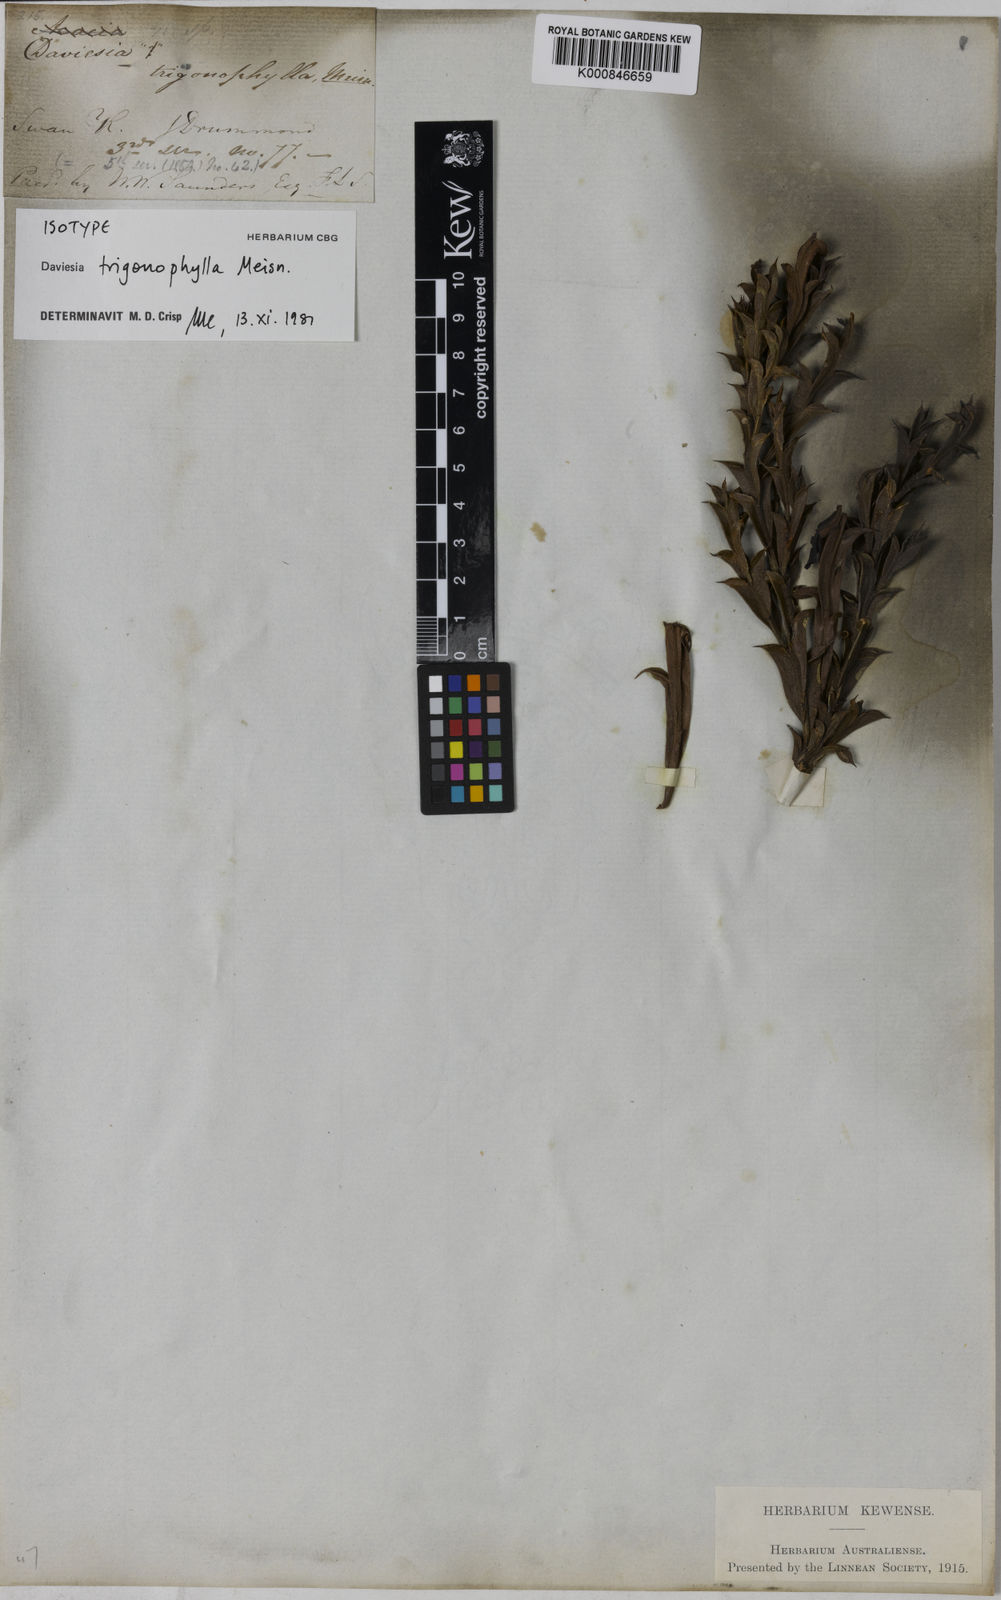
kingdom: Plantae
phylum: Tracheophyta
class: Magnoliopsida
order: Fabales
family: Fabaceae
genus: Daviesia
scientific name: Daviesia trigonophylla
